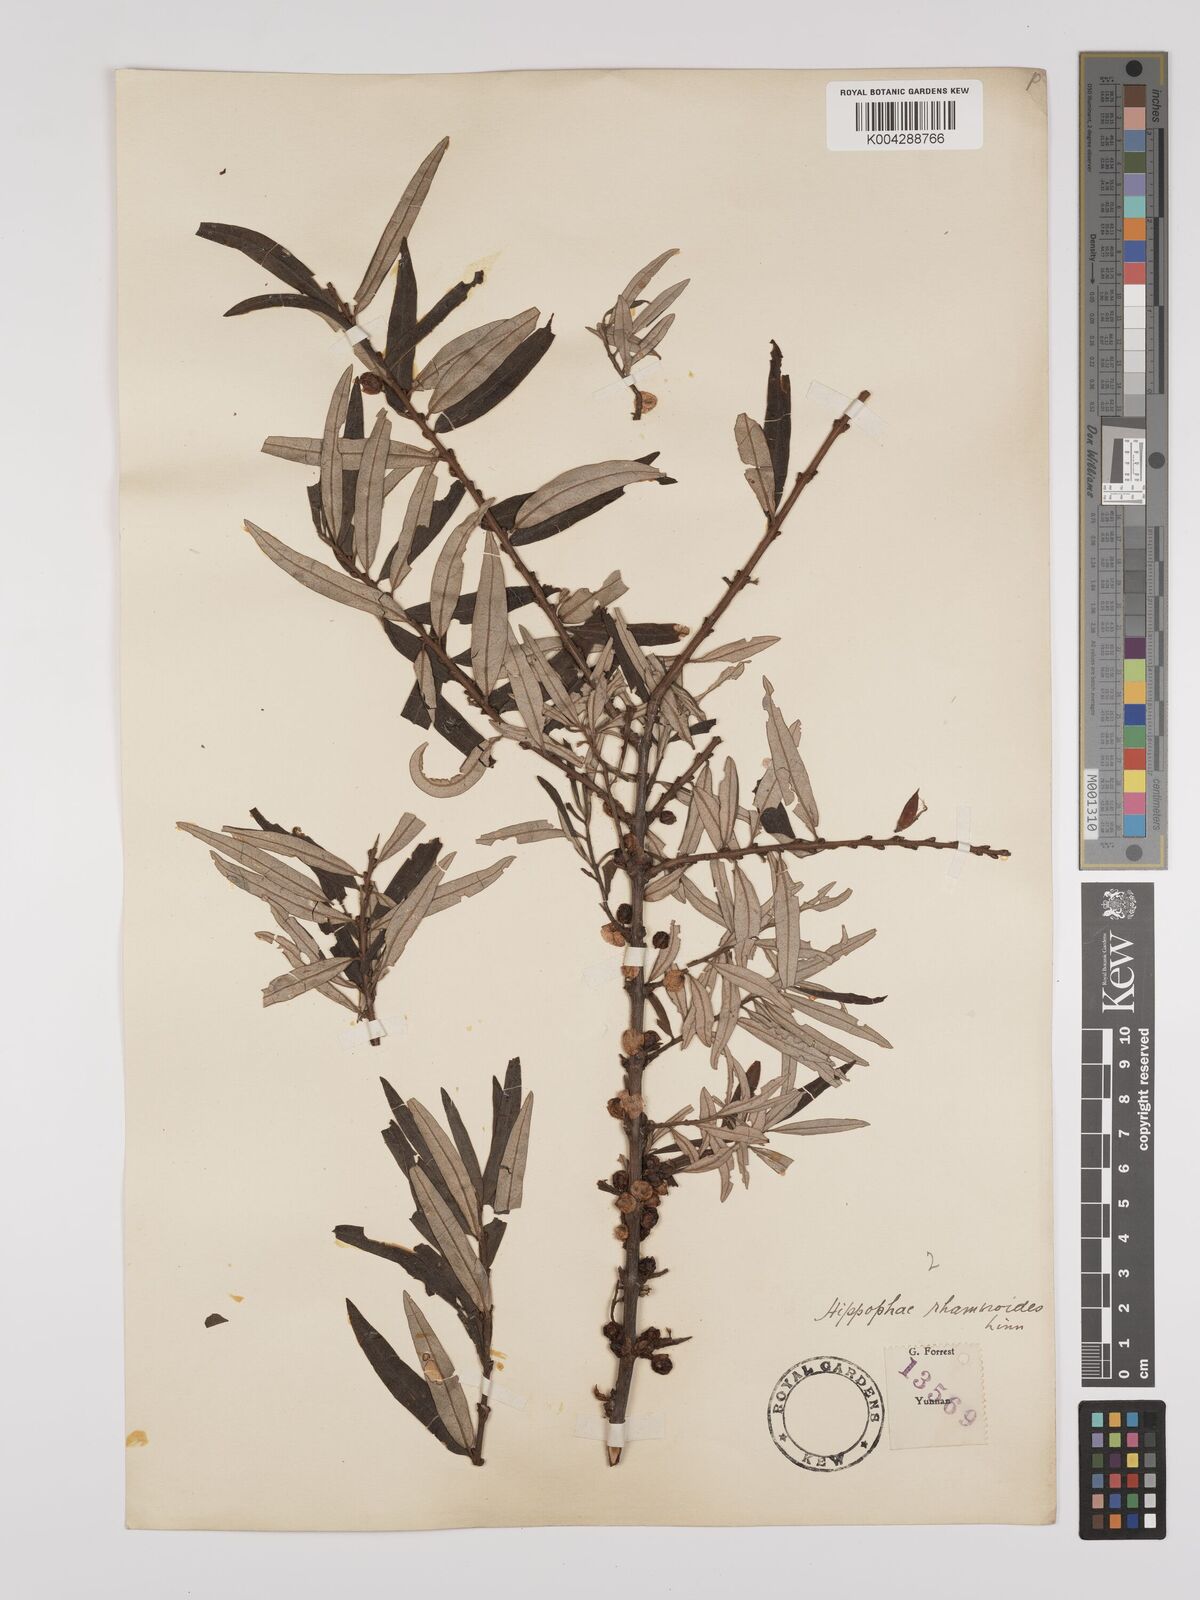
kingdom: Plantae
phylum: Tracheophyta
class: Magnoliopsida
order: Rosales
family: Elaeagnaceae
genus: Hippophae
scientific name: Hippophae rhamnoides
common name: Sea-buckthorn
